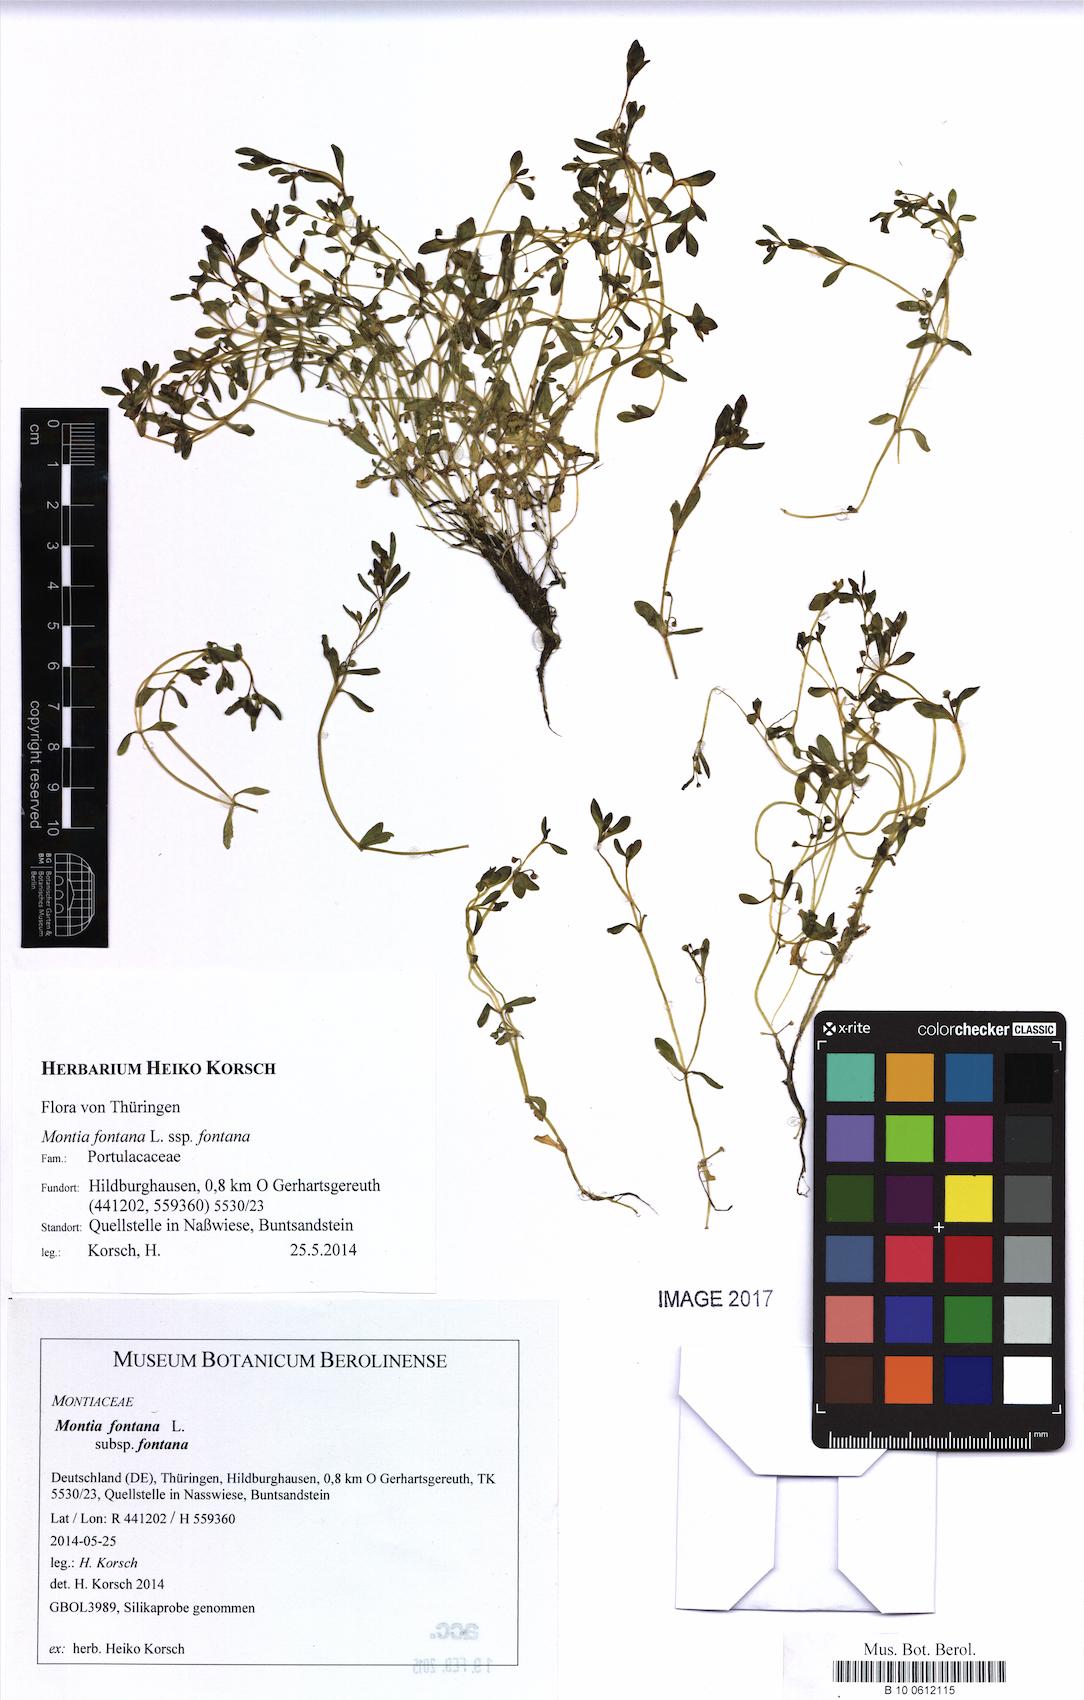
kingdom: Plantae
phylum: Tracheophyta
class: Magnoliopsida
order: Caryophyllales
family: Montiaceae
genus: Montia
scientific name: Montia fontana
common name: Blinks
